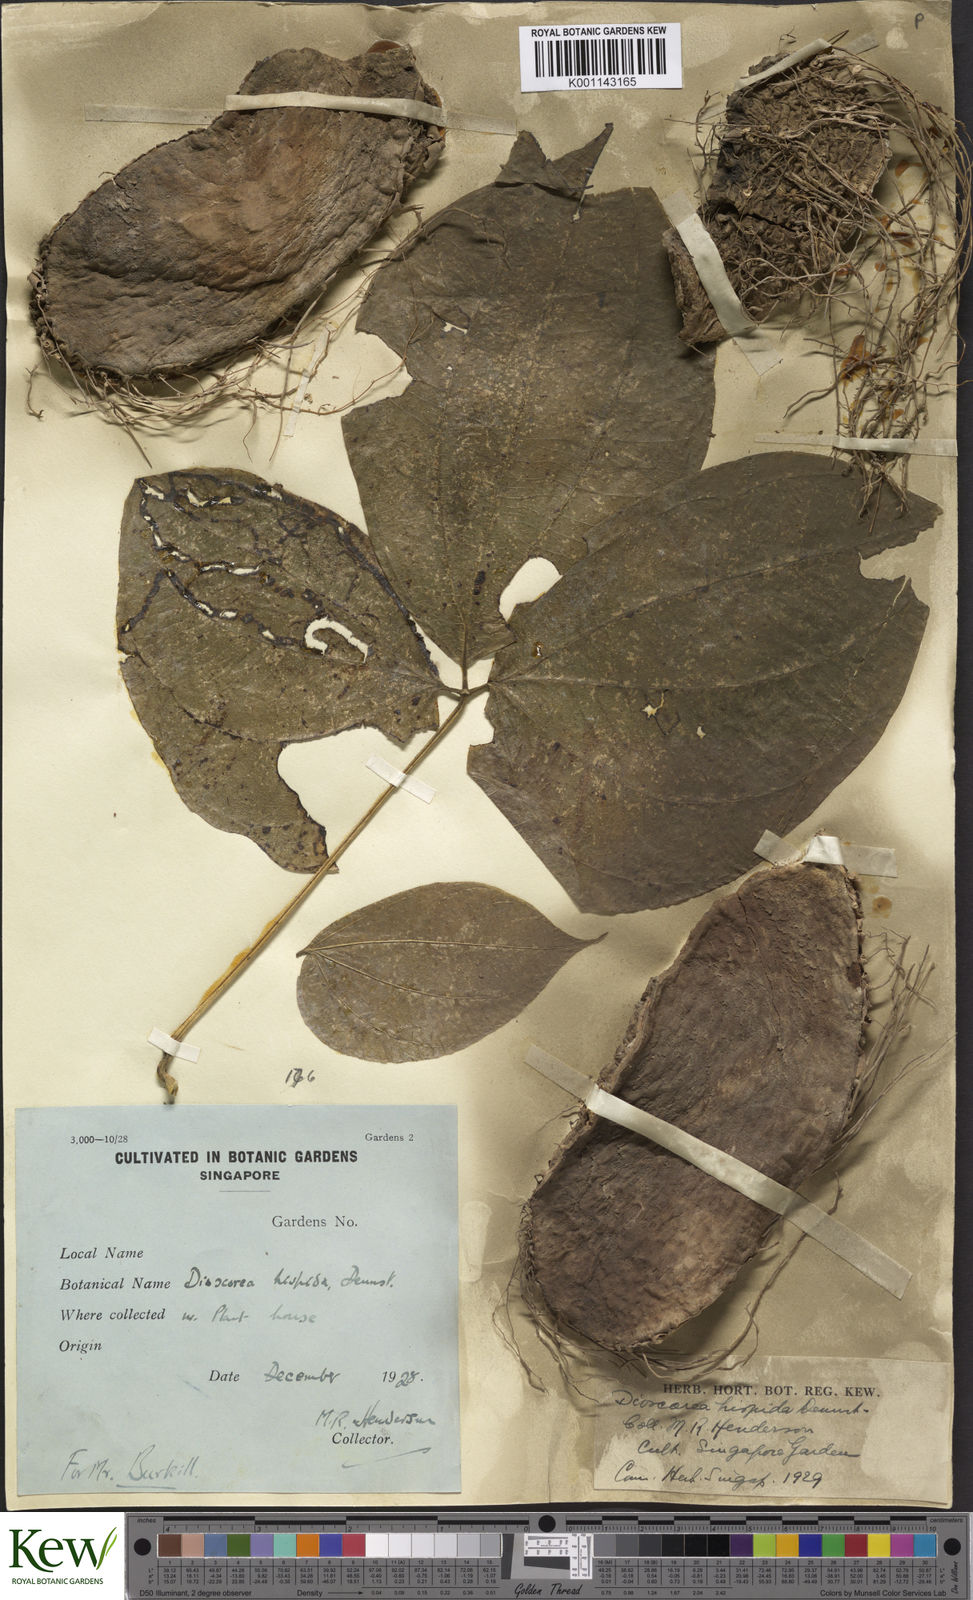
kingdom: Plantae
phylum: Tracheophyta
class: Liliopsida
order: Dioscoreales
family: Dioscoreaceae
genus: Dioscorea
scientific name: Dioscorea hispida
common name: Asiatic bitter yam
